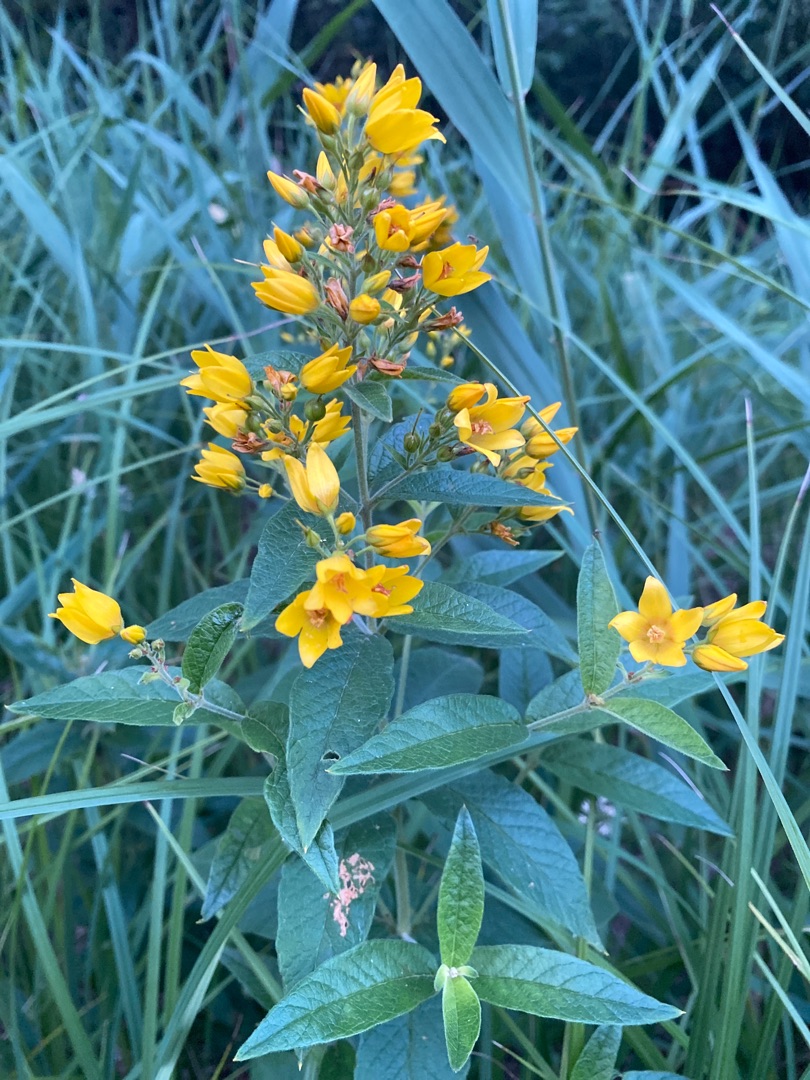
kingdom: Plantae
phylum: Tracheophyta
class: Magnoliopsida
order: Ericales
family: Primulaceae
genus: Lysimachia
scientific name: Lysimachia vulgaris
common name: Almindelig fredløs
